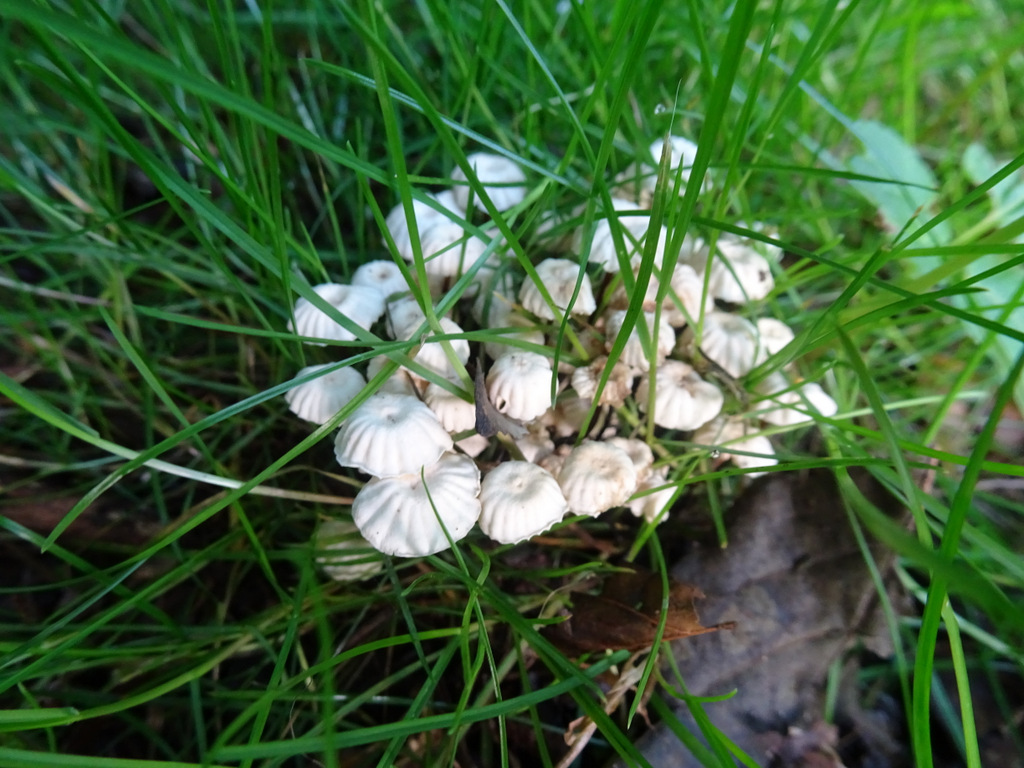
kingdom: Fungi
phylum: Basidiomycota
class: Agaricomycetes
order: Agaricales
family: Marasmiaceae
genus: Marasmius
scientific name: Marasmius rotula
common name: hjul-bruskhat
